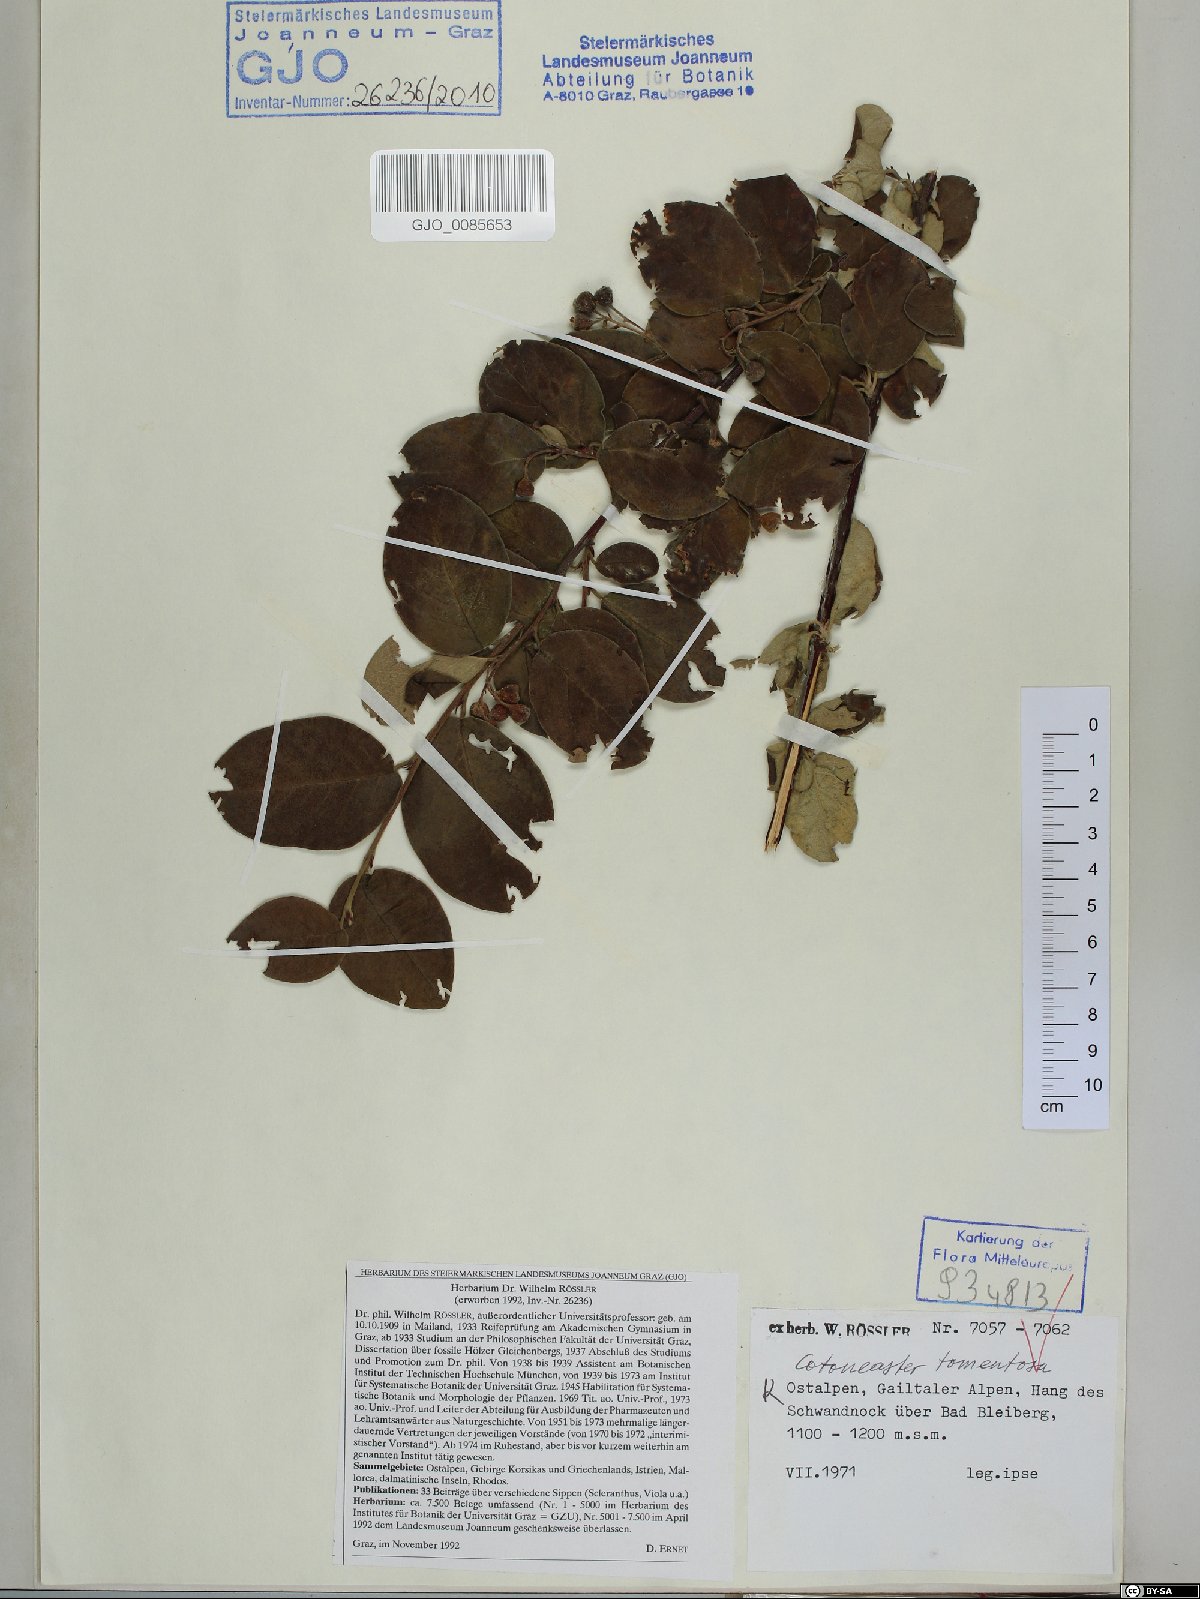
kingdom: Plantae
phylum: Tracheophyta
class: Magnoliopsida
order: Rosales
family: Rosaceae
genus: Cotoneaster
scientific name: Cotoneaster tomentosus
